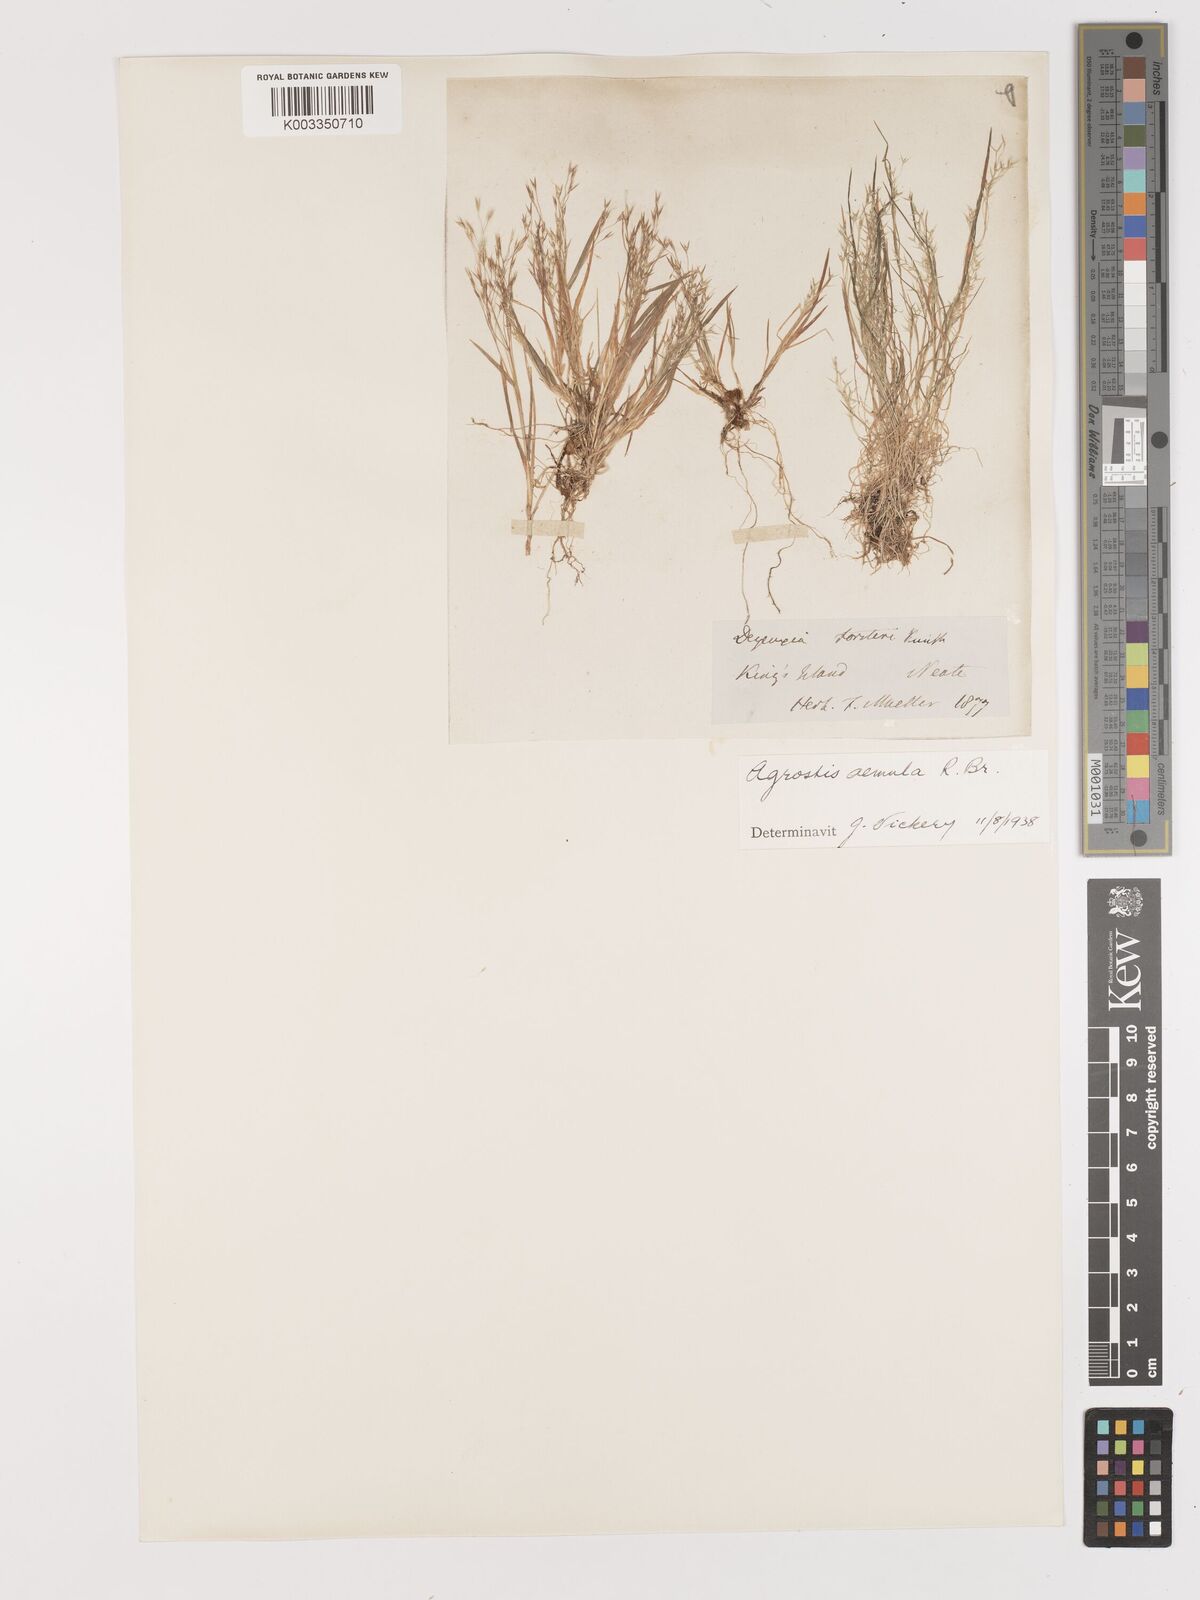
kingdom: Plantae
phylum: Tracheophyta
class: Liliopsida
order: Poales
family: Poaceae
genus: Lachnagrostis
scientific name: Lachnagrostis aemula
